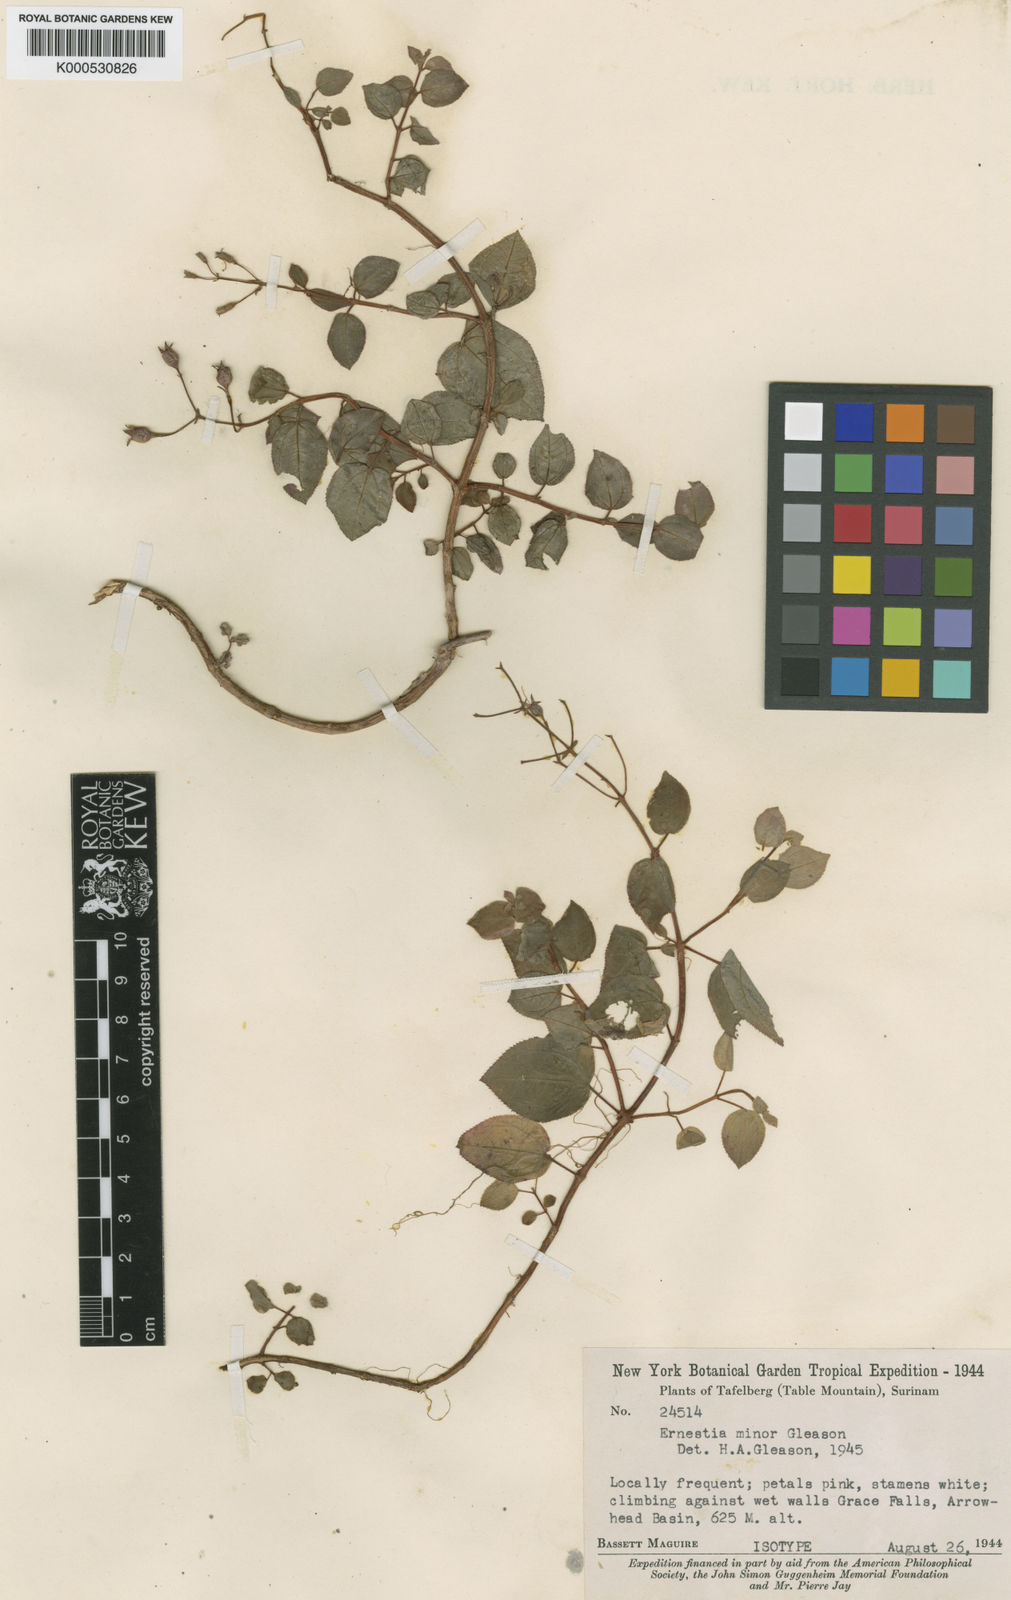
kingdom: Plantae
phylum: Tracheophyta
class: Magnoliopsida
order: Myrtales
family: Melastomataceae
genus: Ernestia
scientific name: Ernestia minor
